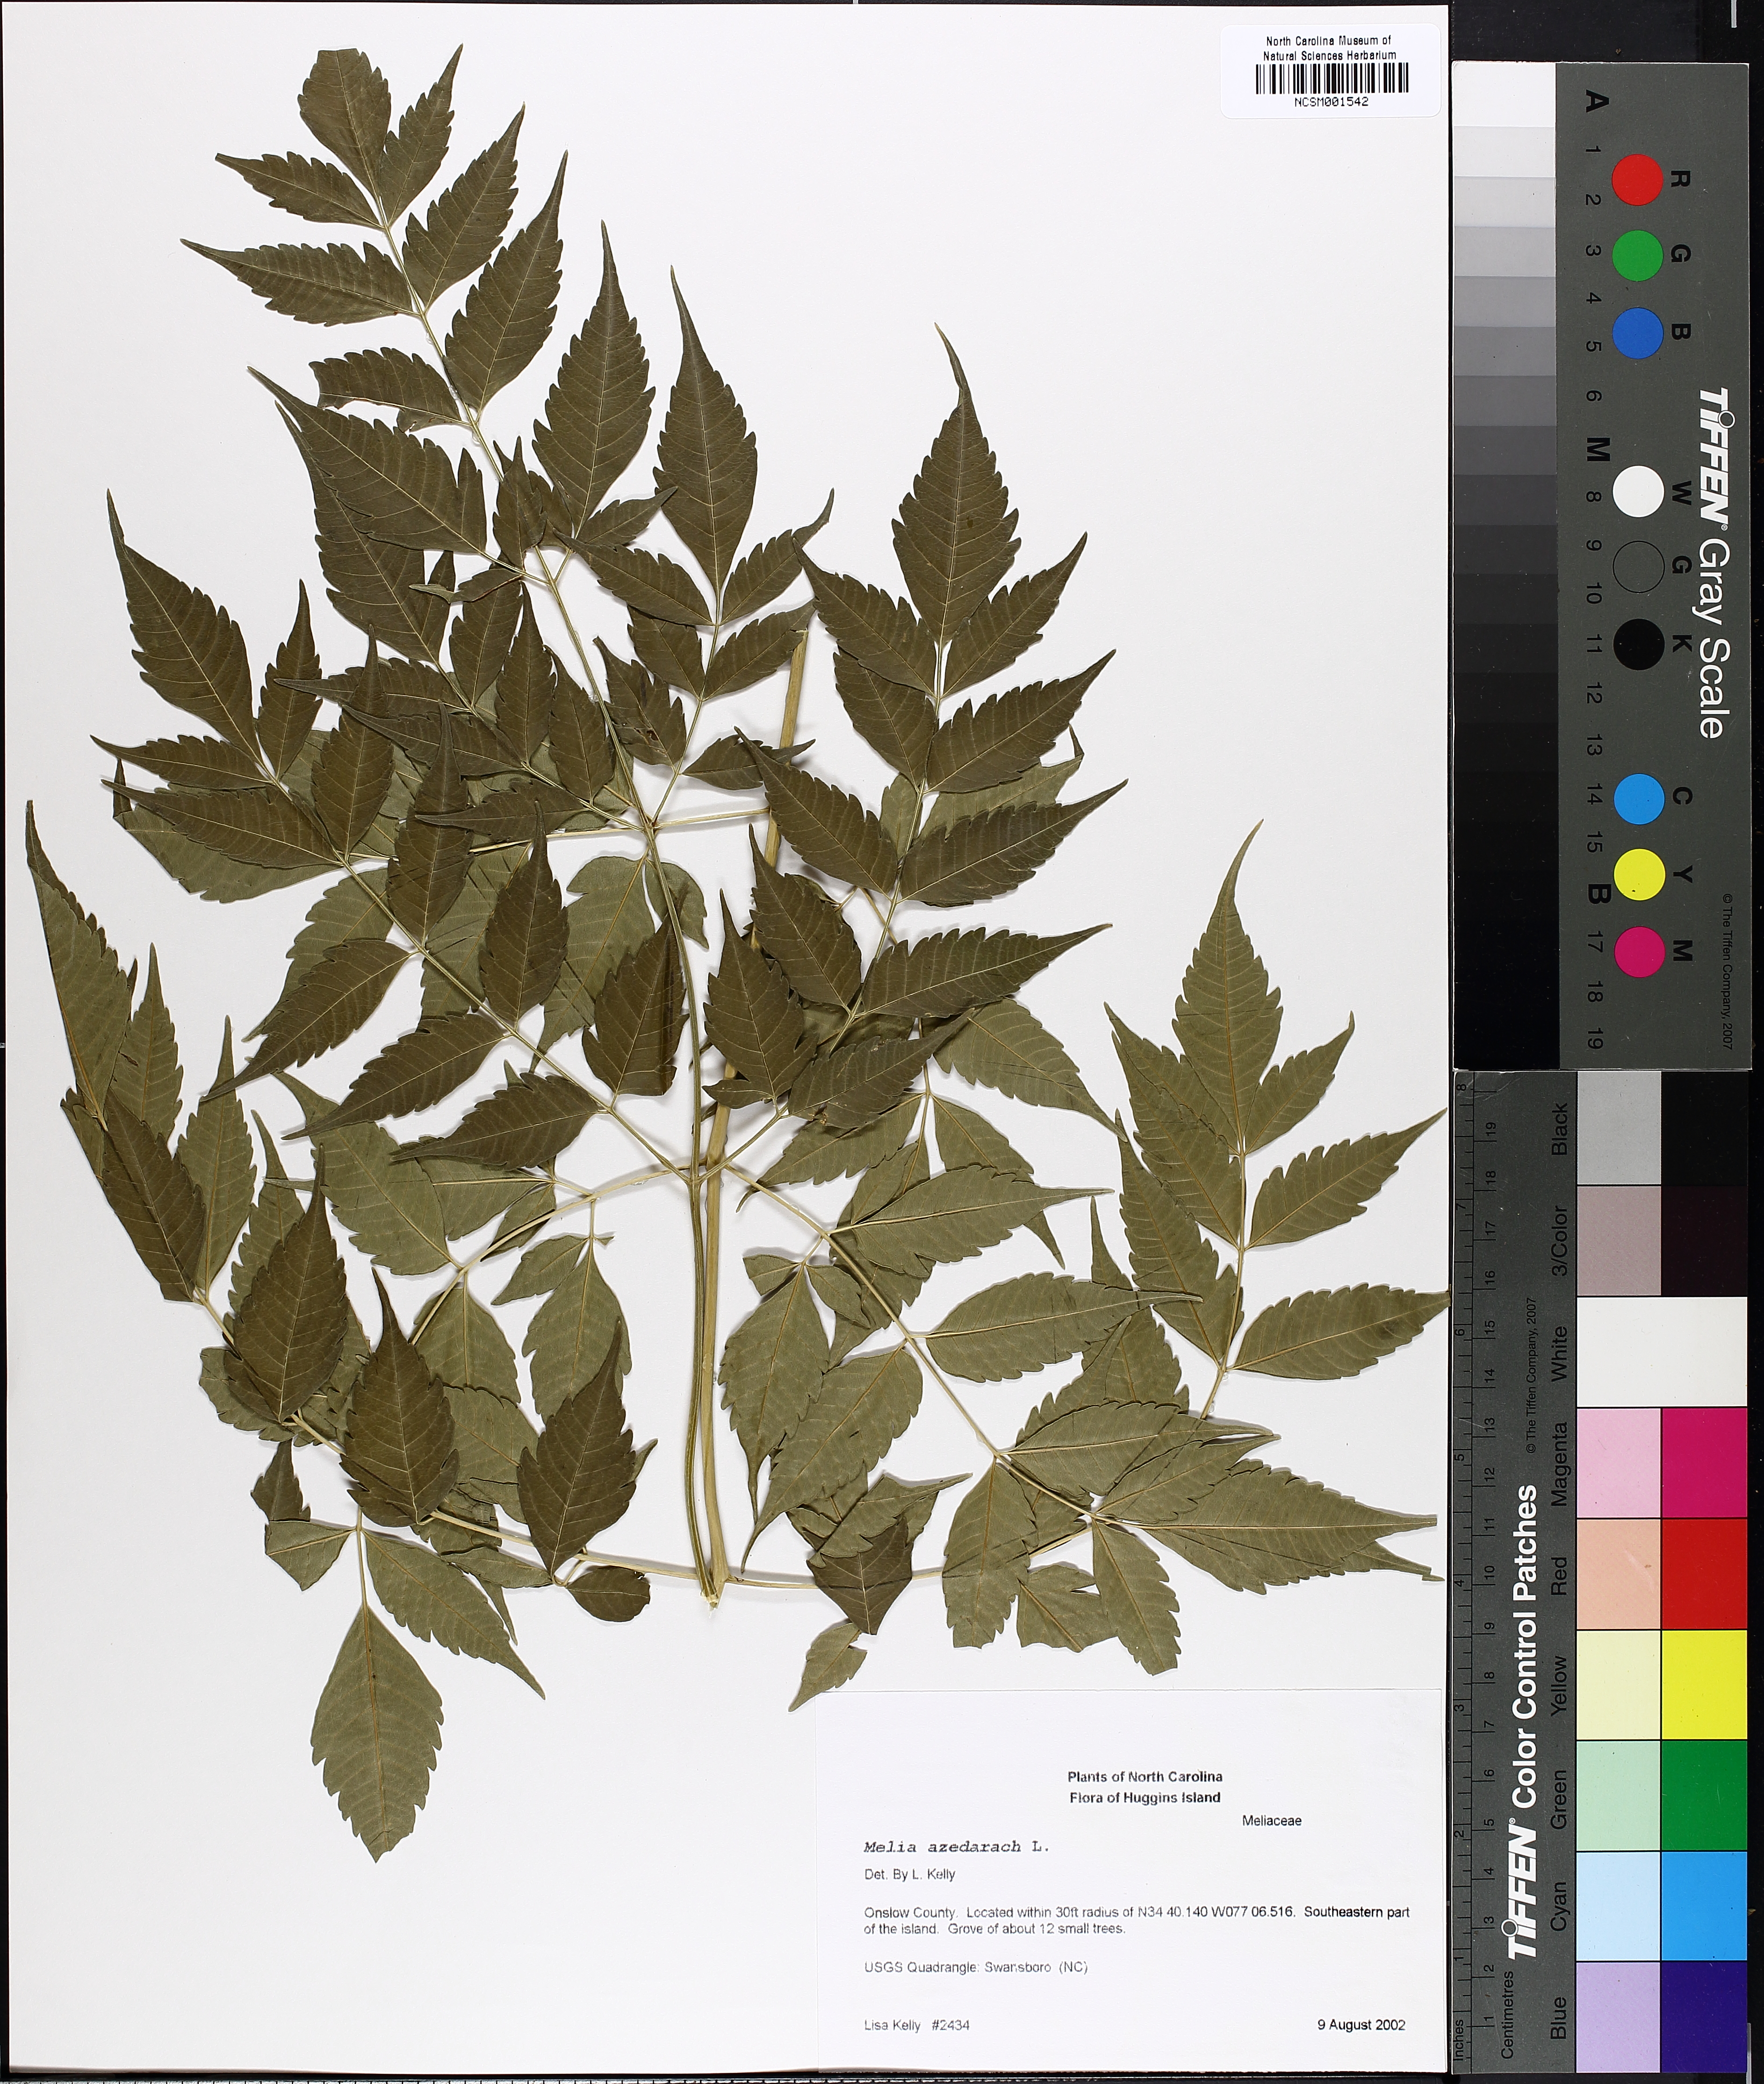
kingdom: Plantae
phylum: Tracheophyta
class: Magnoliopsida
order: Sapindales
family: Meliaceae
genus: Melia
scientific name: Melia azedarach
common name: Chinaberrytree
